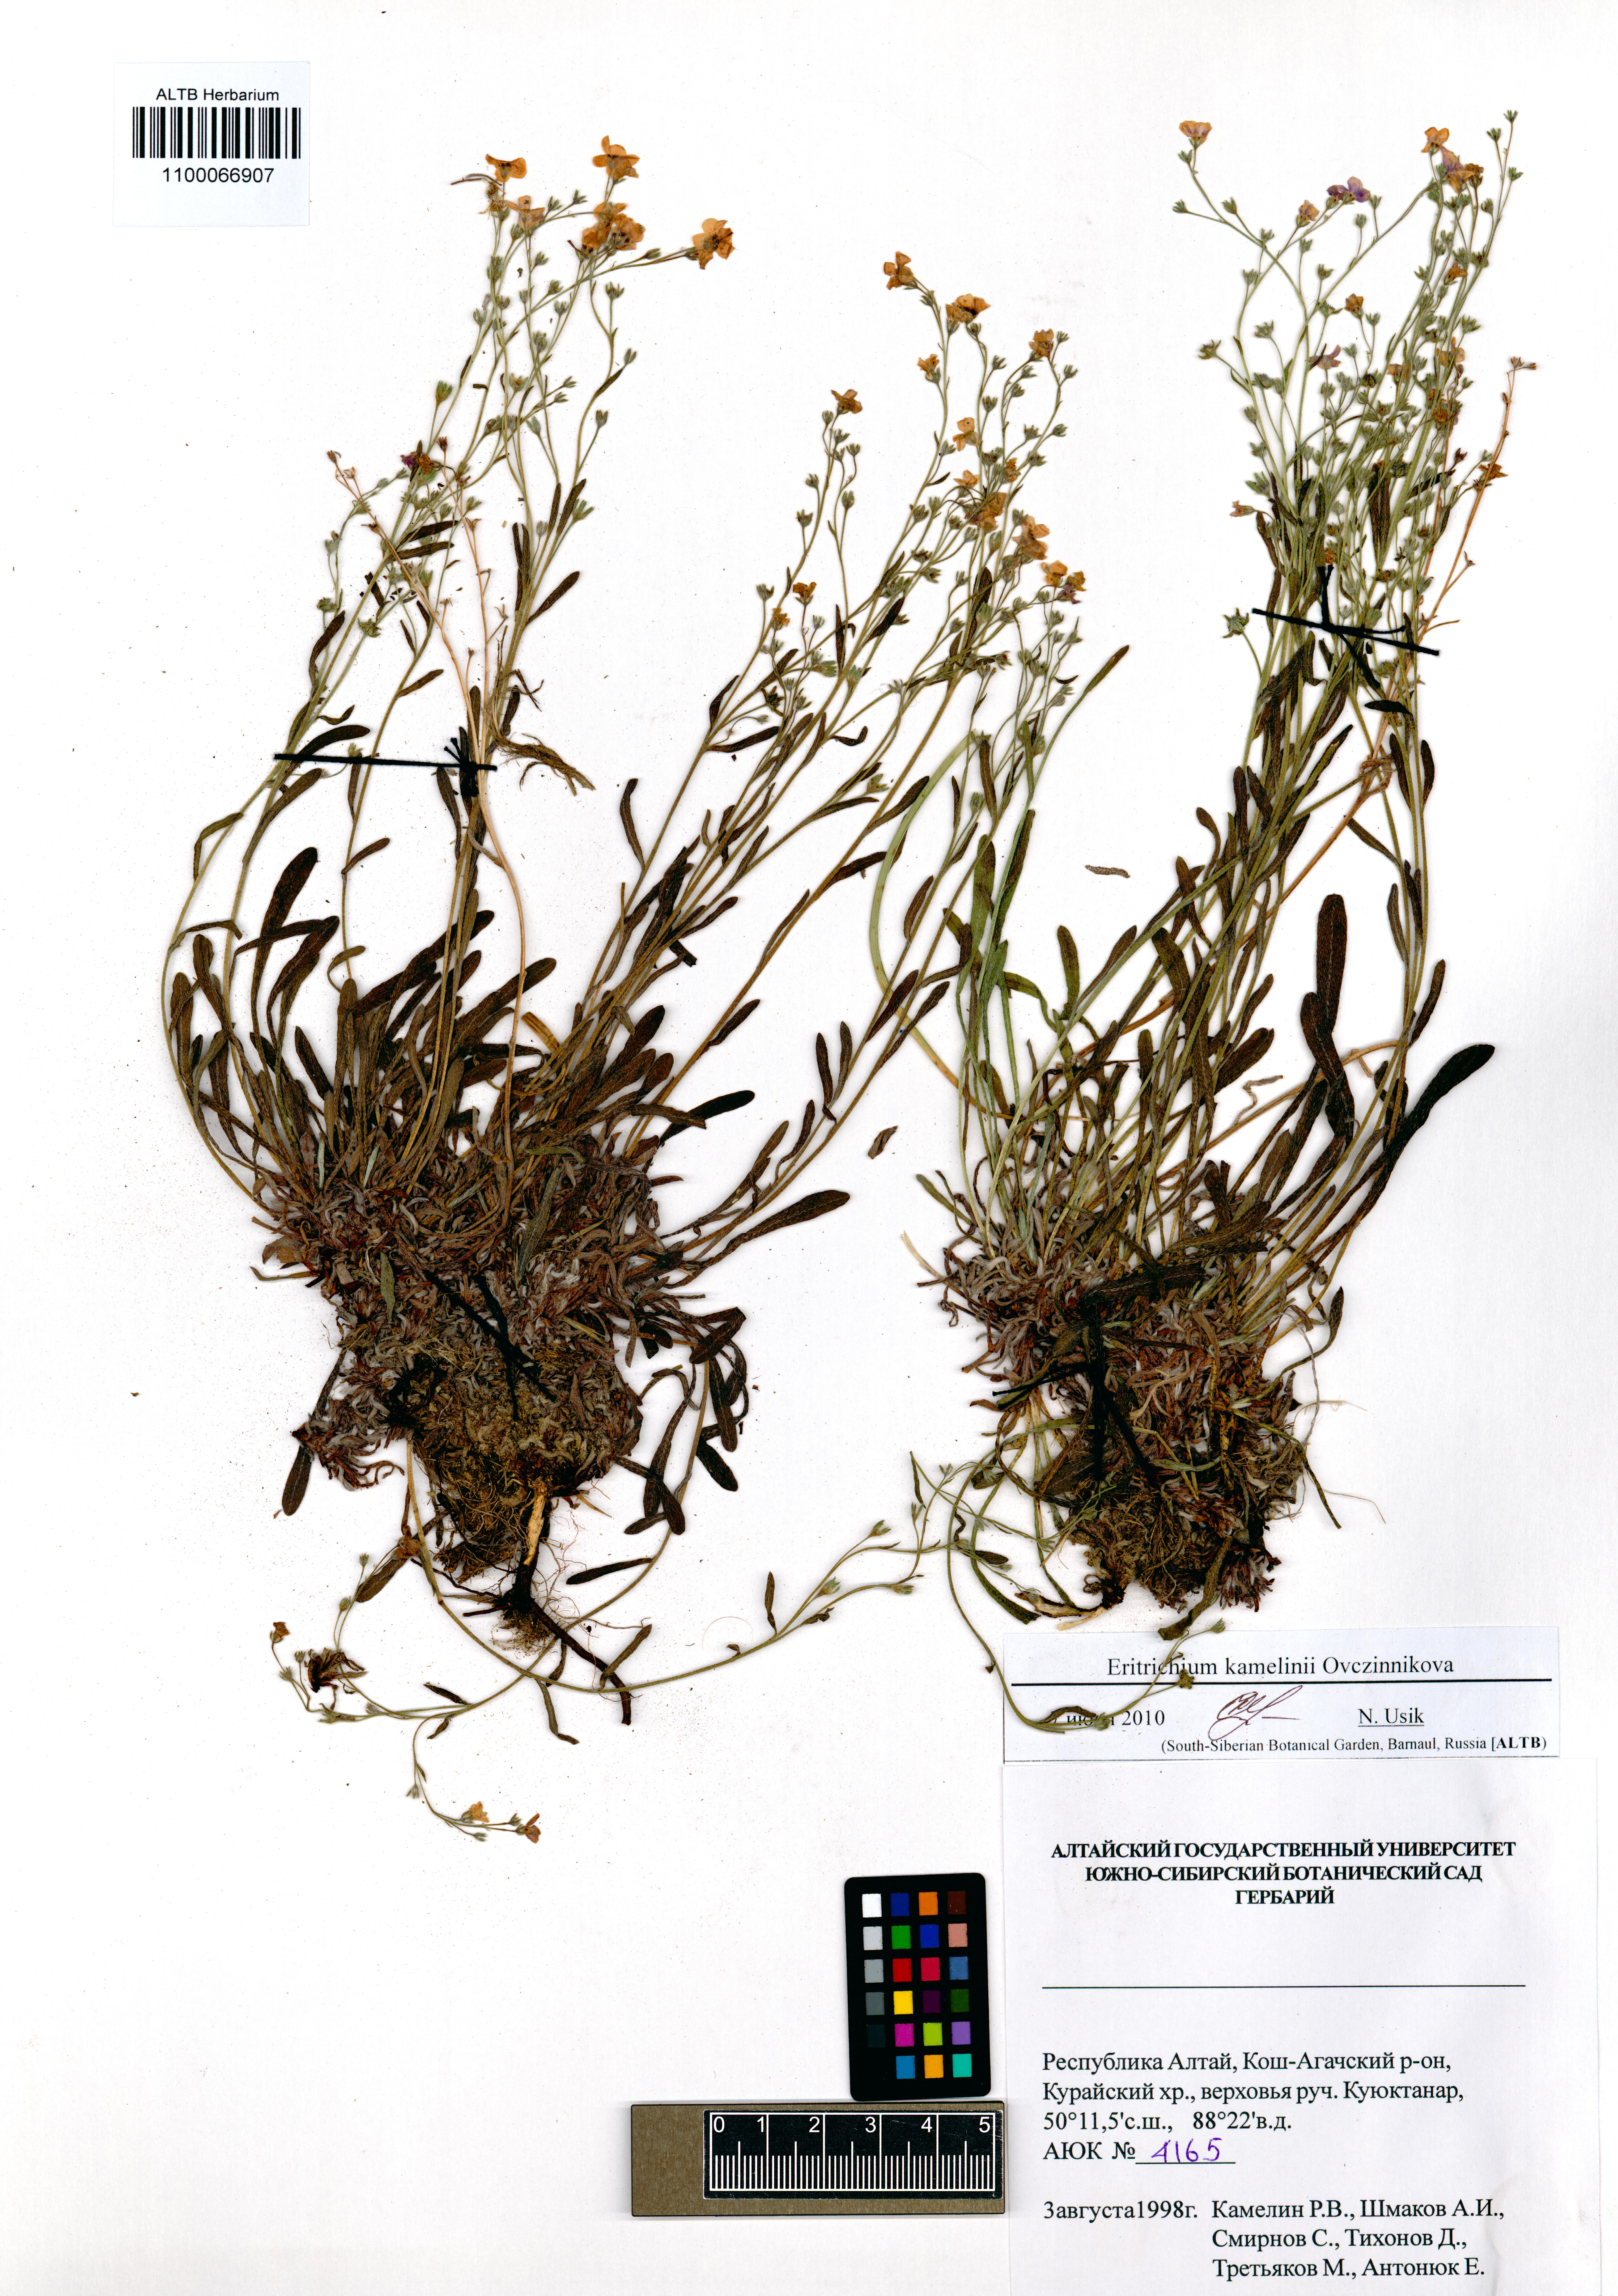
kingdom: Plantae
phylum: Tracheophyta
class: Magnoliopsida
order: Boraginales
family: Boraginaceae
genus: Eritrichium
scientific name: Eritrichium kamelinii
